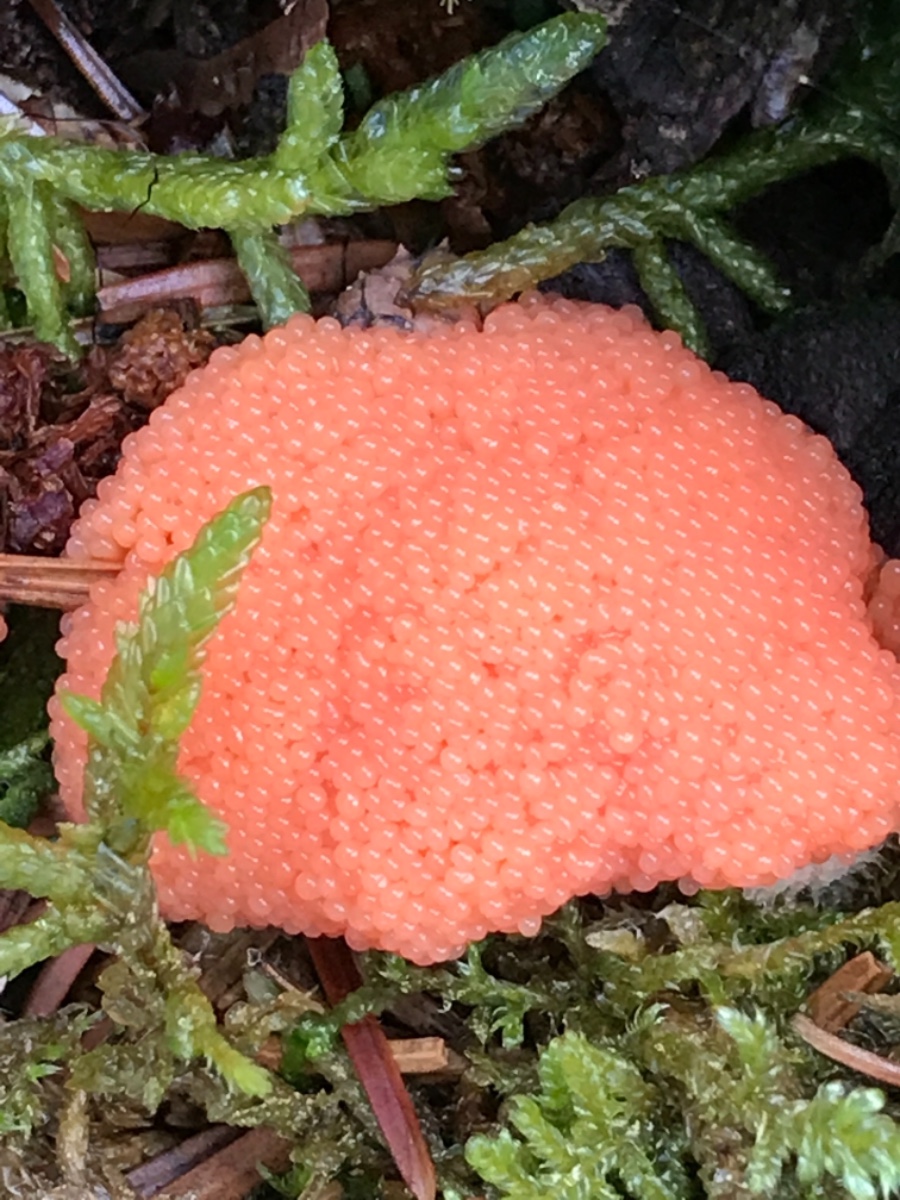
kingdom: Protozoa
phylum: Mycetozoa
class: Myxomycetes
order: Cribrariales
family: Tubiferaceae
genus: Tubifera
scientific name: Tubifera ferruginosa
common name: kanel-støvrør
